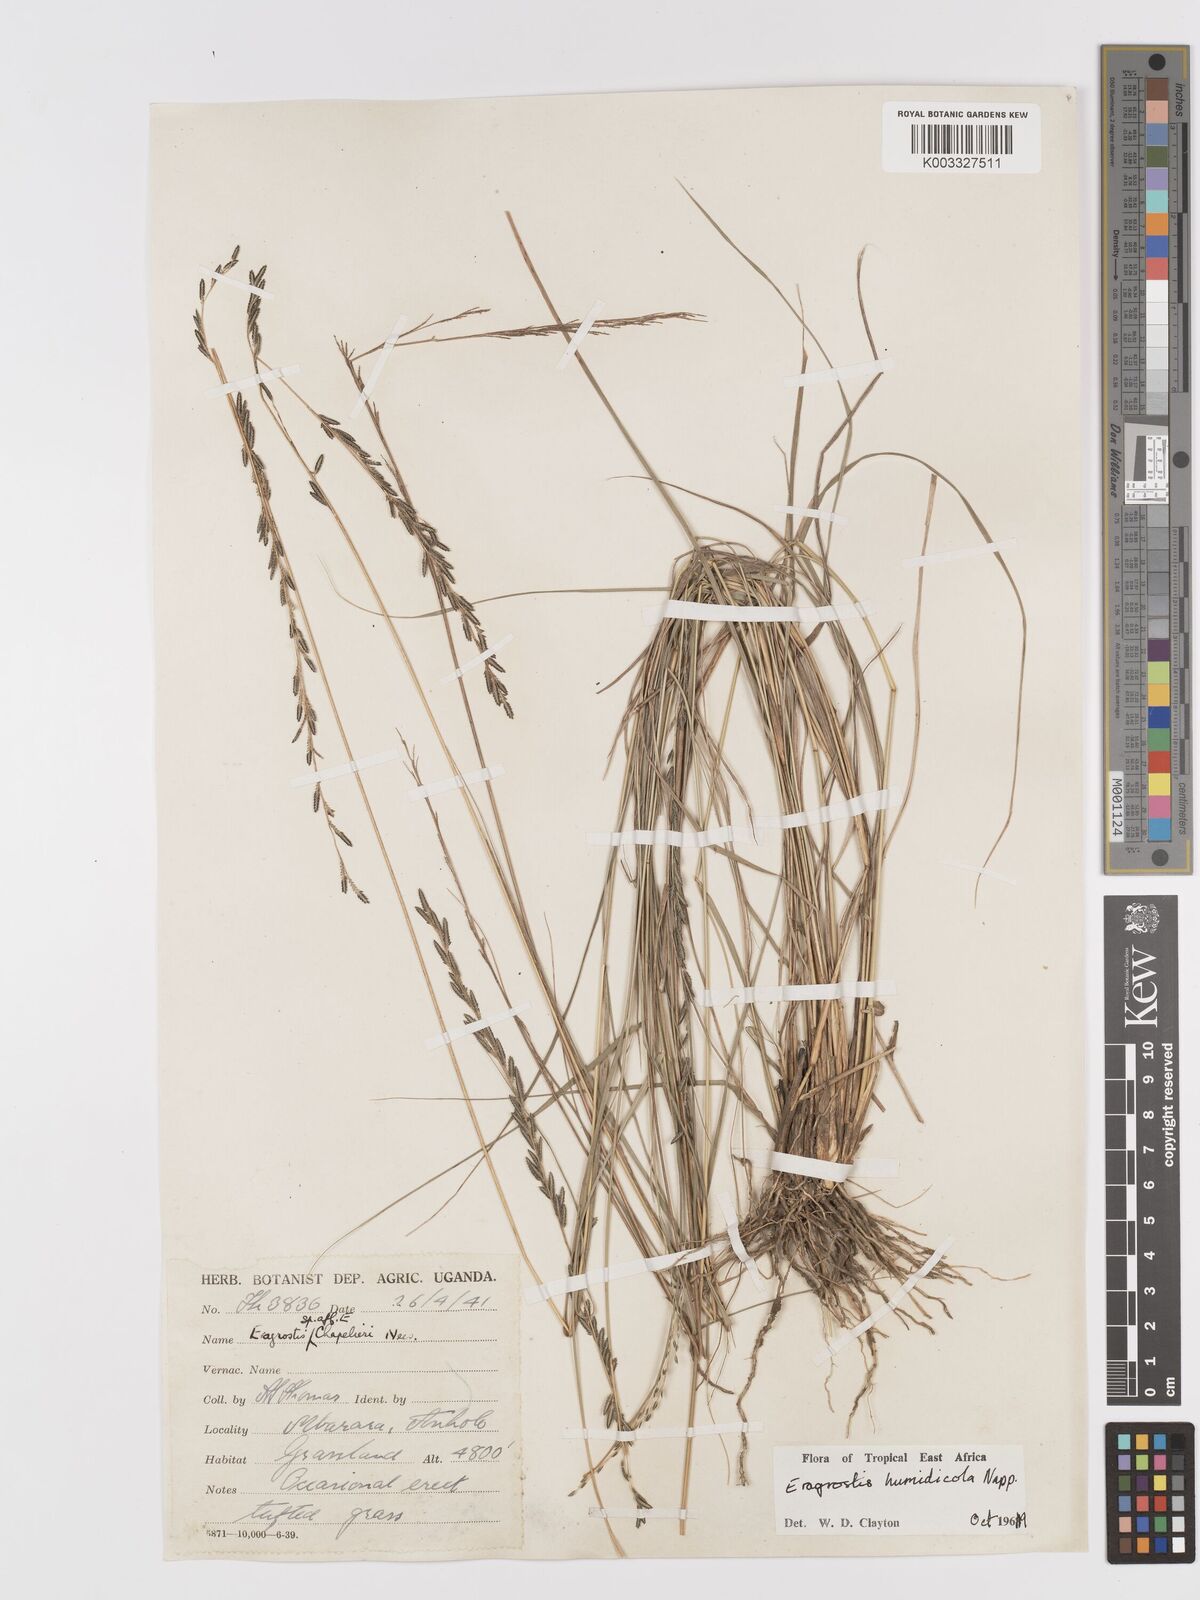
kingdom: Plantae
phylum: Tracheophyta
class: Liliopsida
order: Poales
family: Poaceae
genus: Eragrostis
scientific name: Eragrostis humidicola
